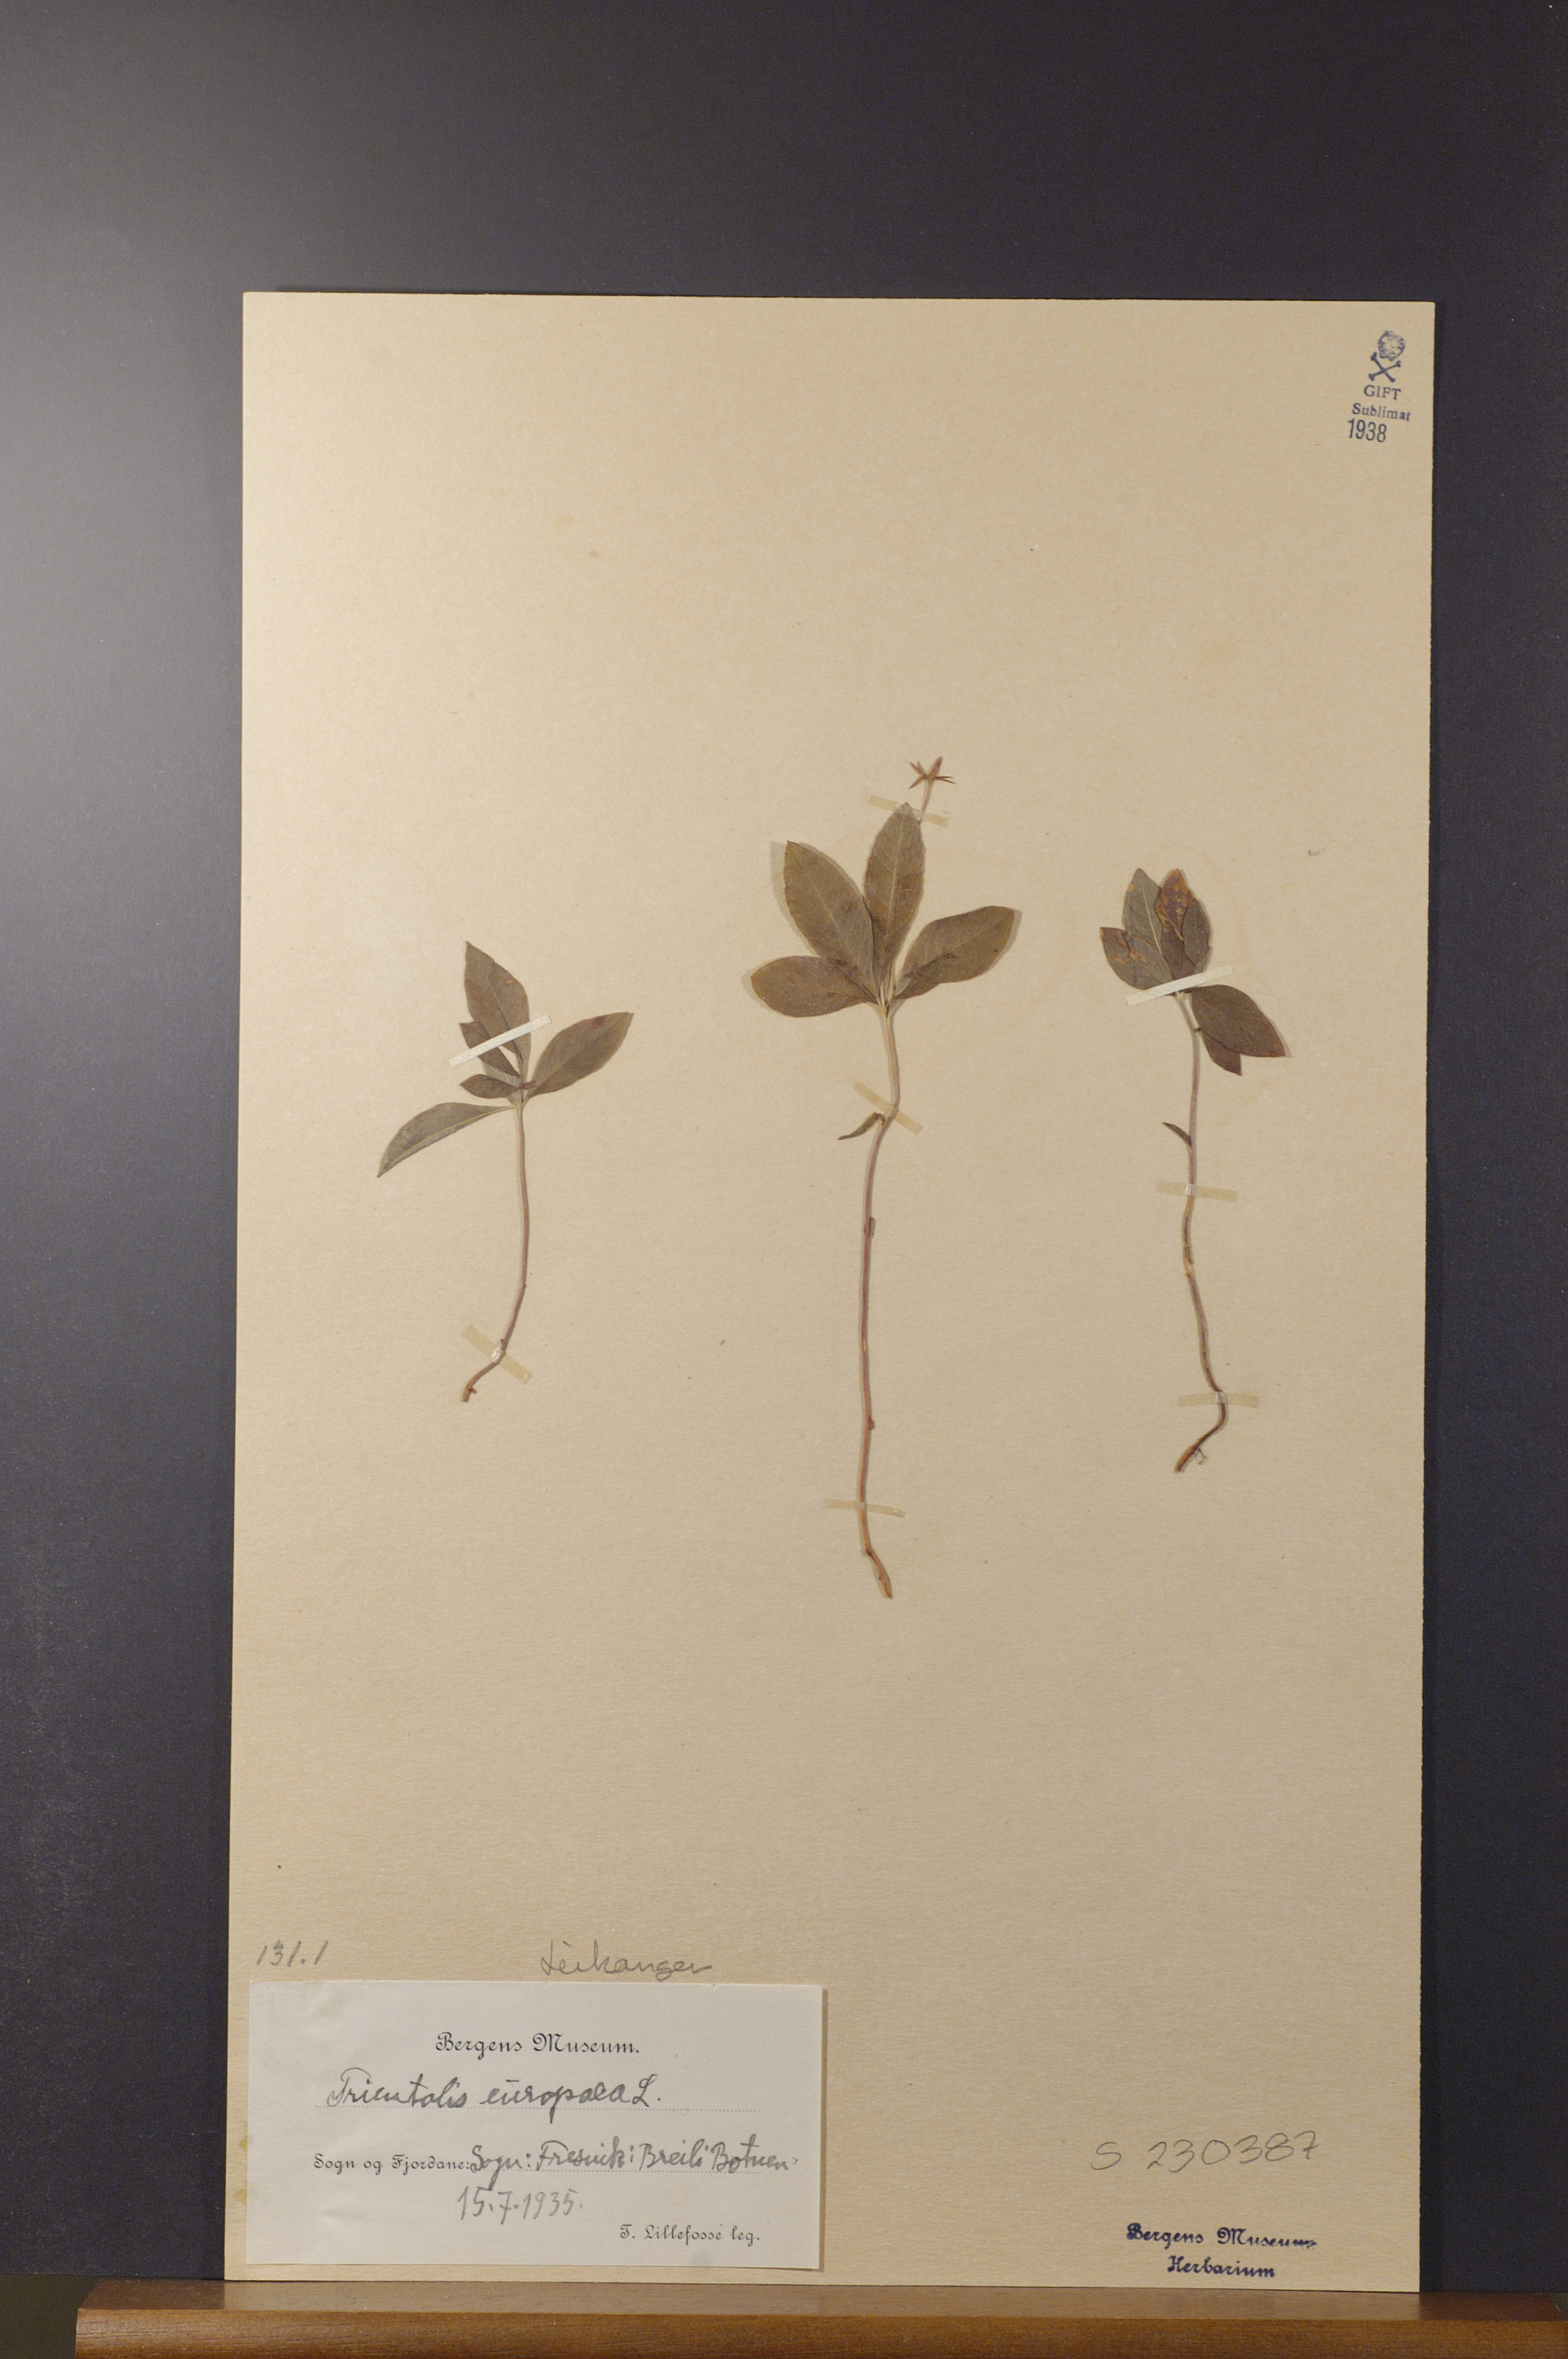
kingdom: Plantae
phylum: Tracheophyta
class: Magnoliopsida
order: Ericales
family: Primulaceae
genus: Lysimachia
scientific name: Lysimachia europaea
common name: Arctic starflower
